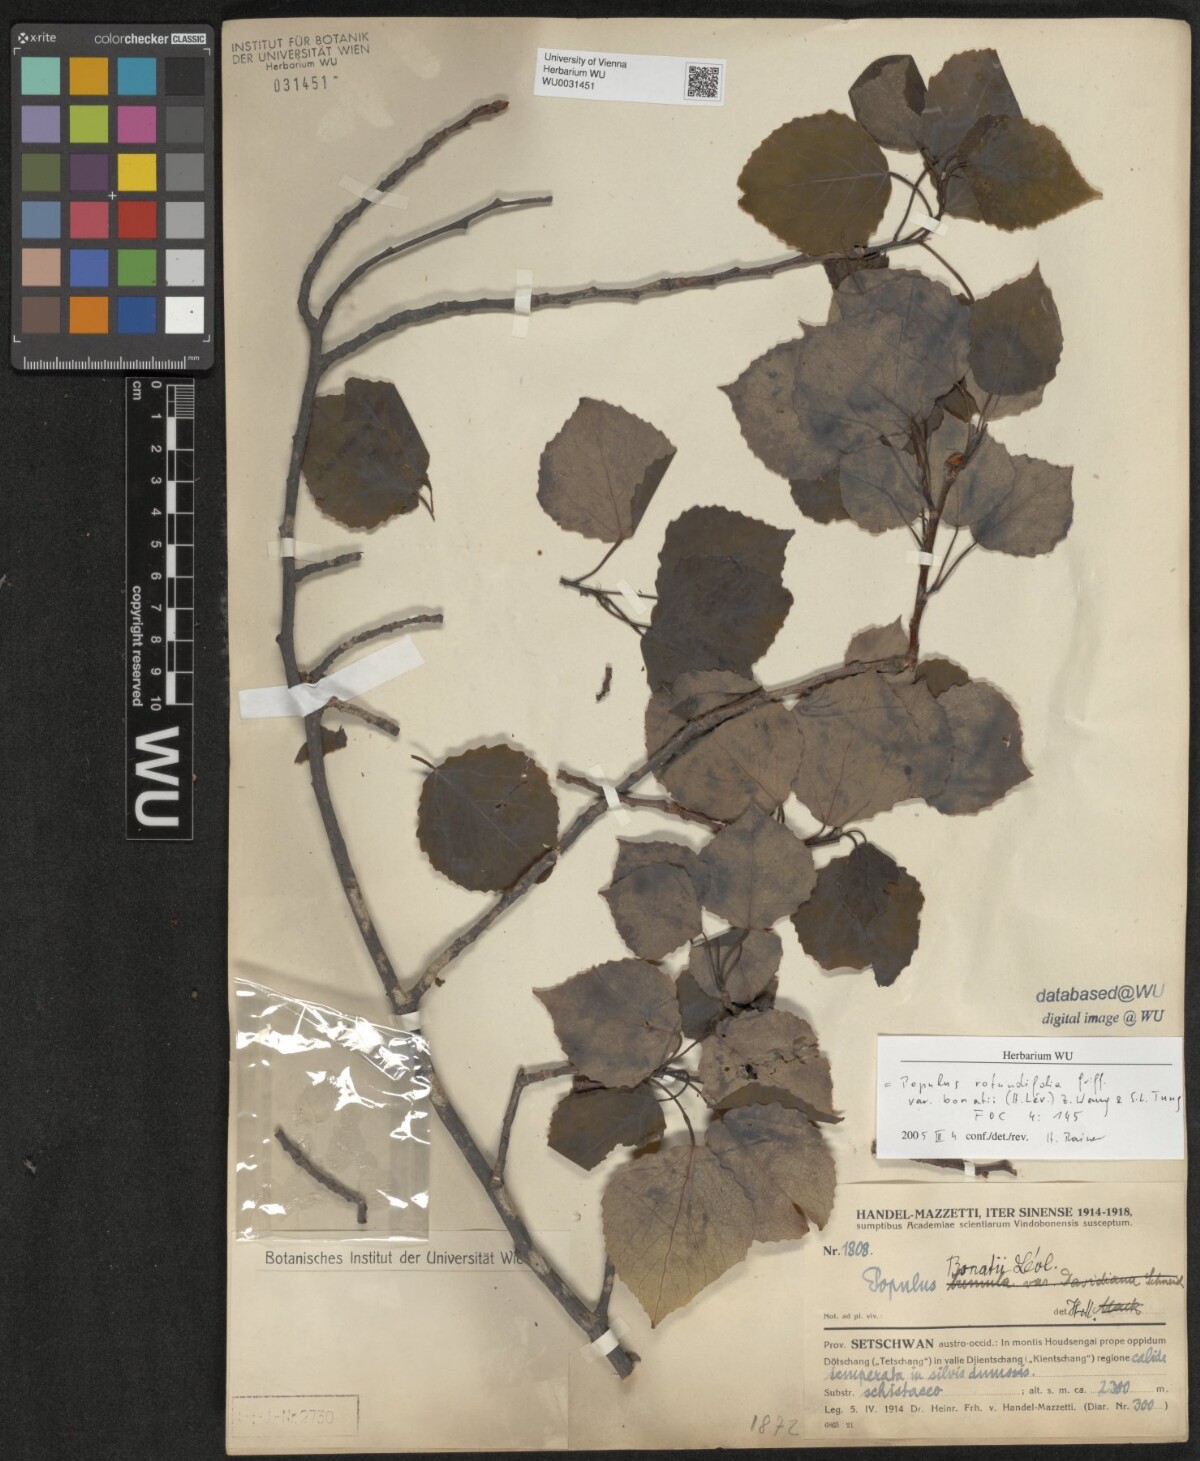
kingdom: Plantae
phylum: Tracheophyta
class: Magnoliopsida
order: Malpighiales
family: Salicaceae
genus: Populus
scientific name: Populus rotundifolia
